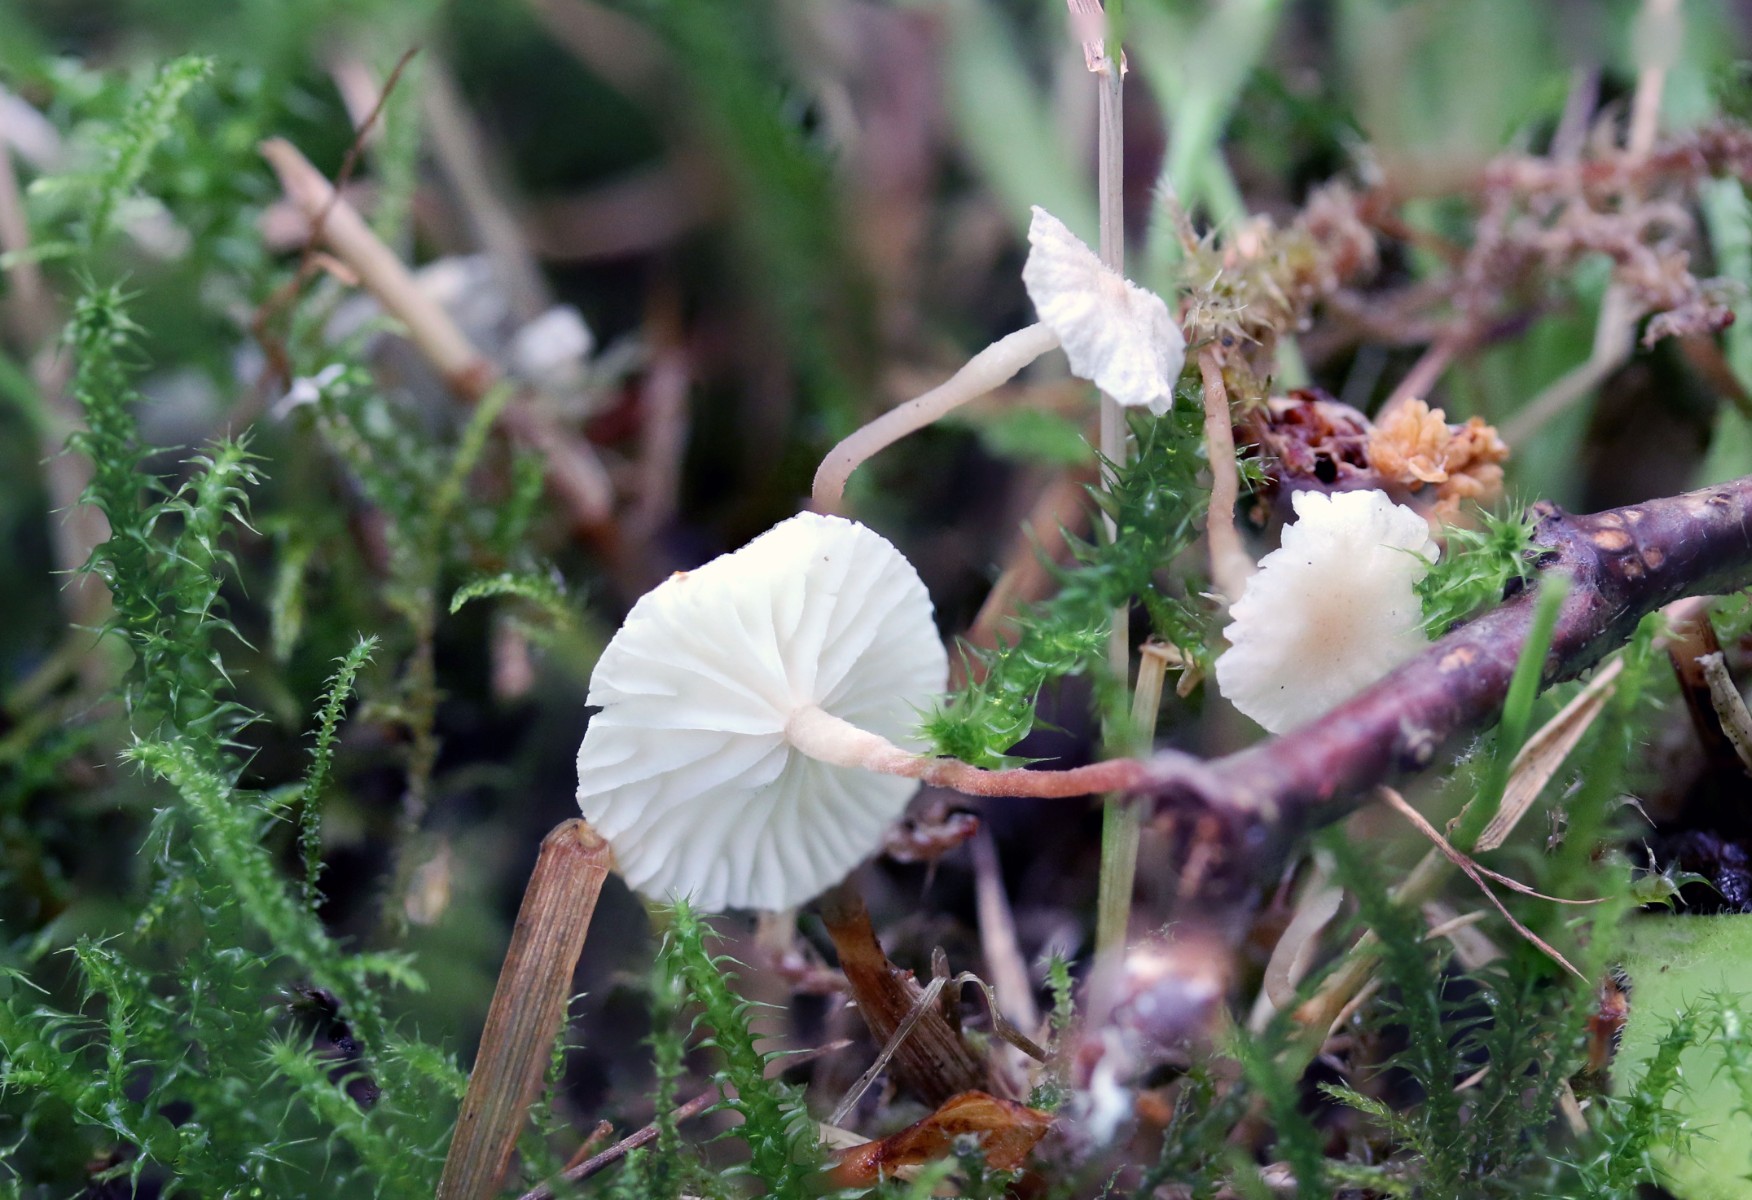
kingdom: Fungi
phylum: Basidiomycota
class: Agaricomycetes
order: Agaricales
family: Omphalotaceae
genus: Collybiopsis
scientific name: Collybiopsis vaillantii
